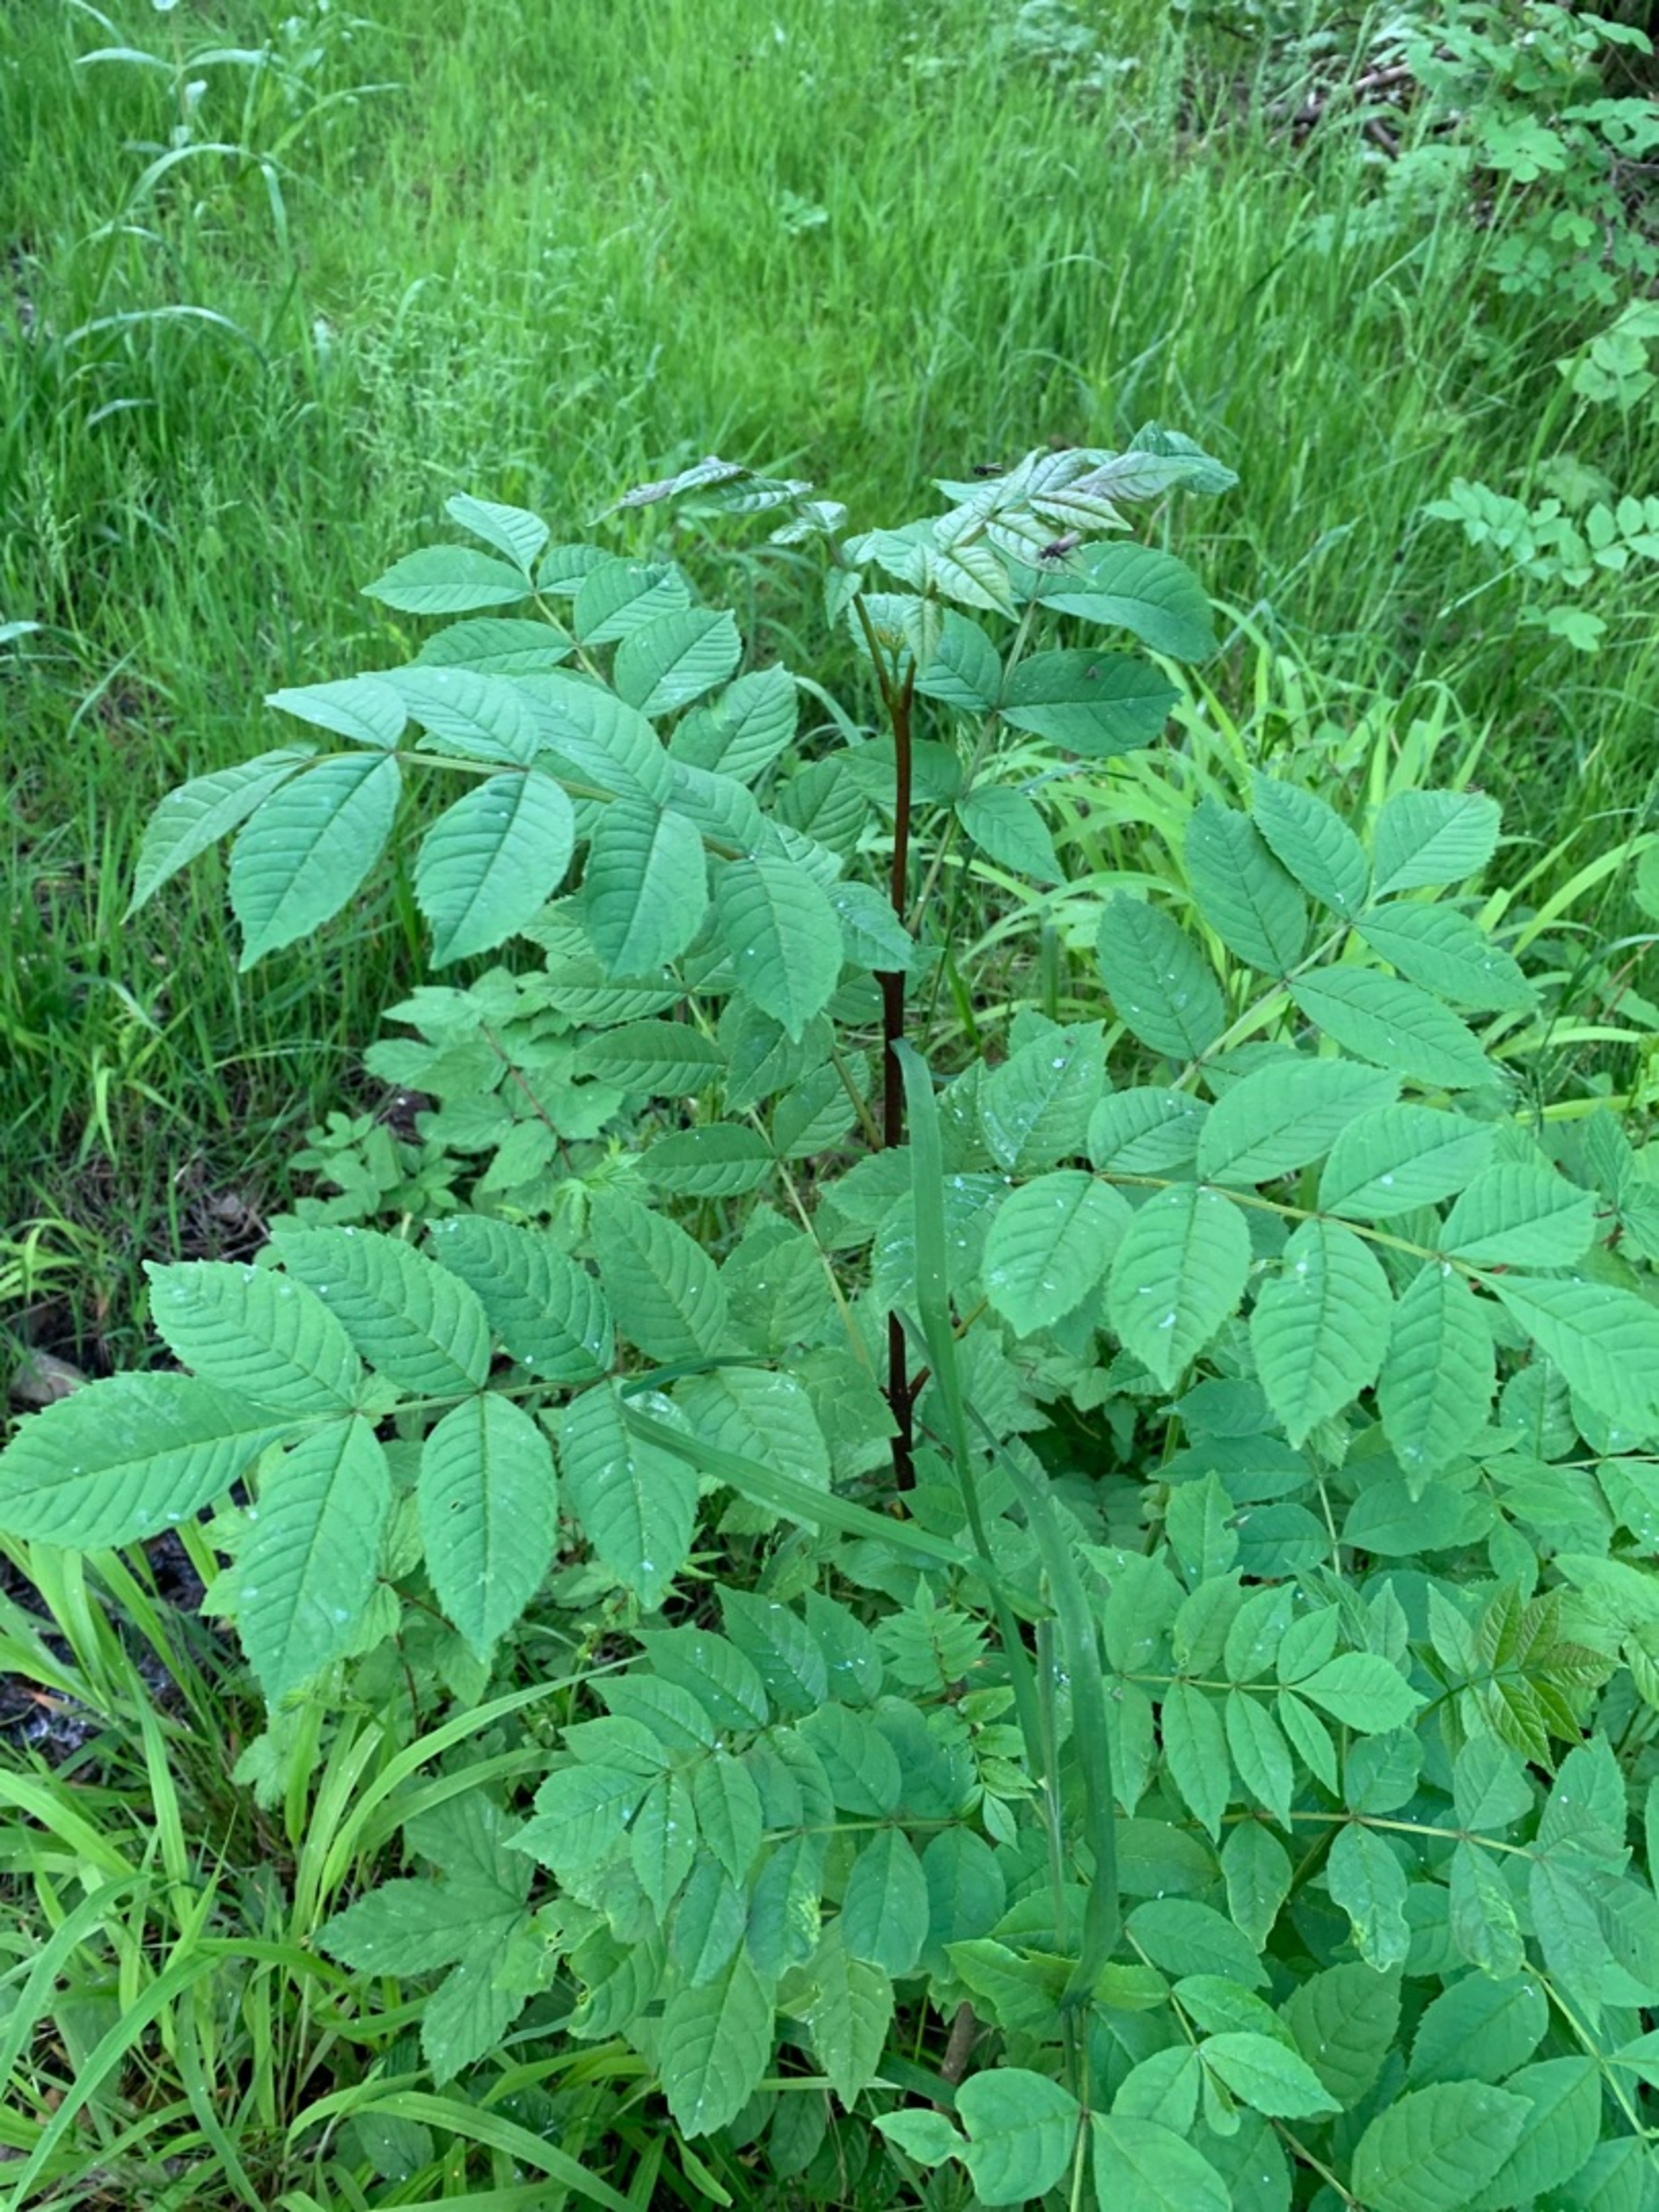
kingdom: Plantae
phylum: Tracheophyta
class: Magnoliopsida
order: Lamiales
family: Oleaceae
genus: Fraxinus
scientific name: Fraxinus excelsior
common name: Ask
